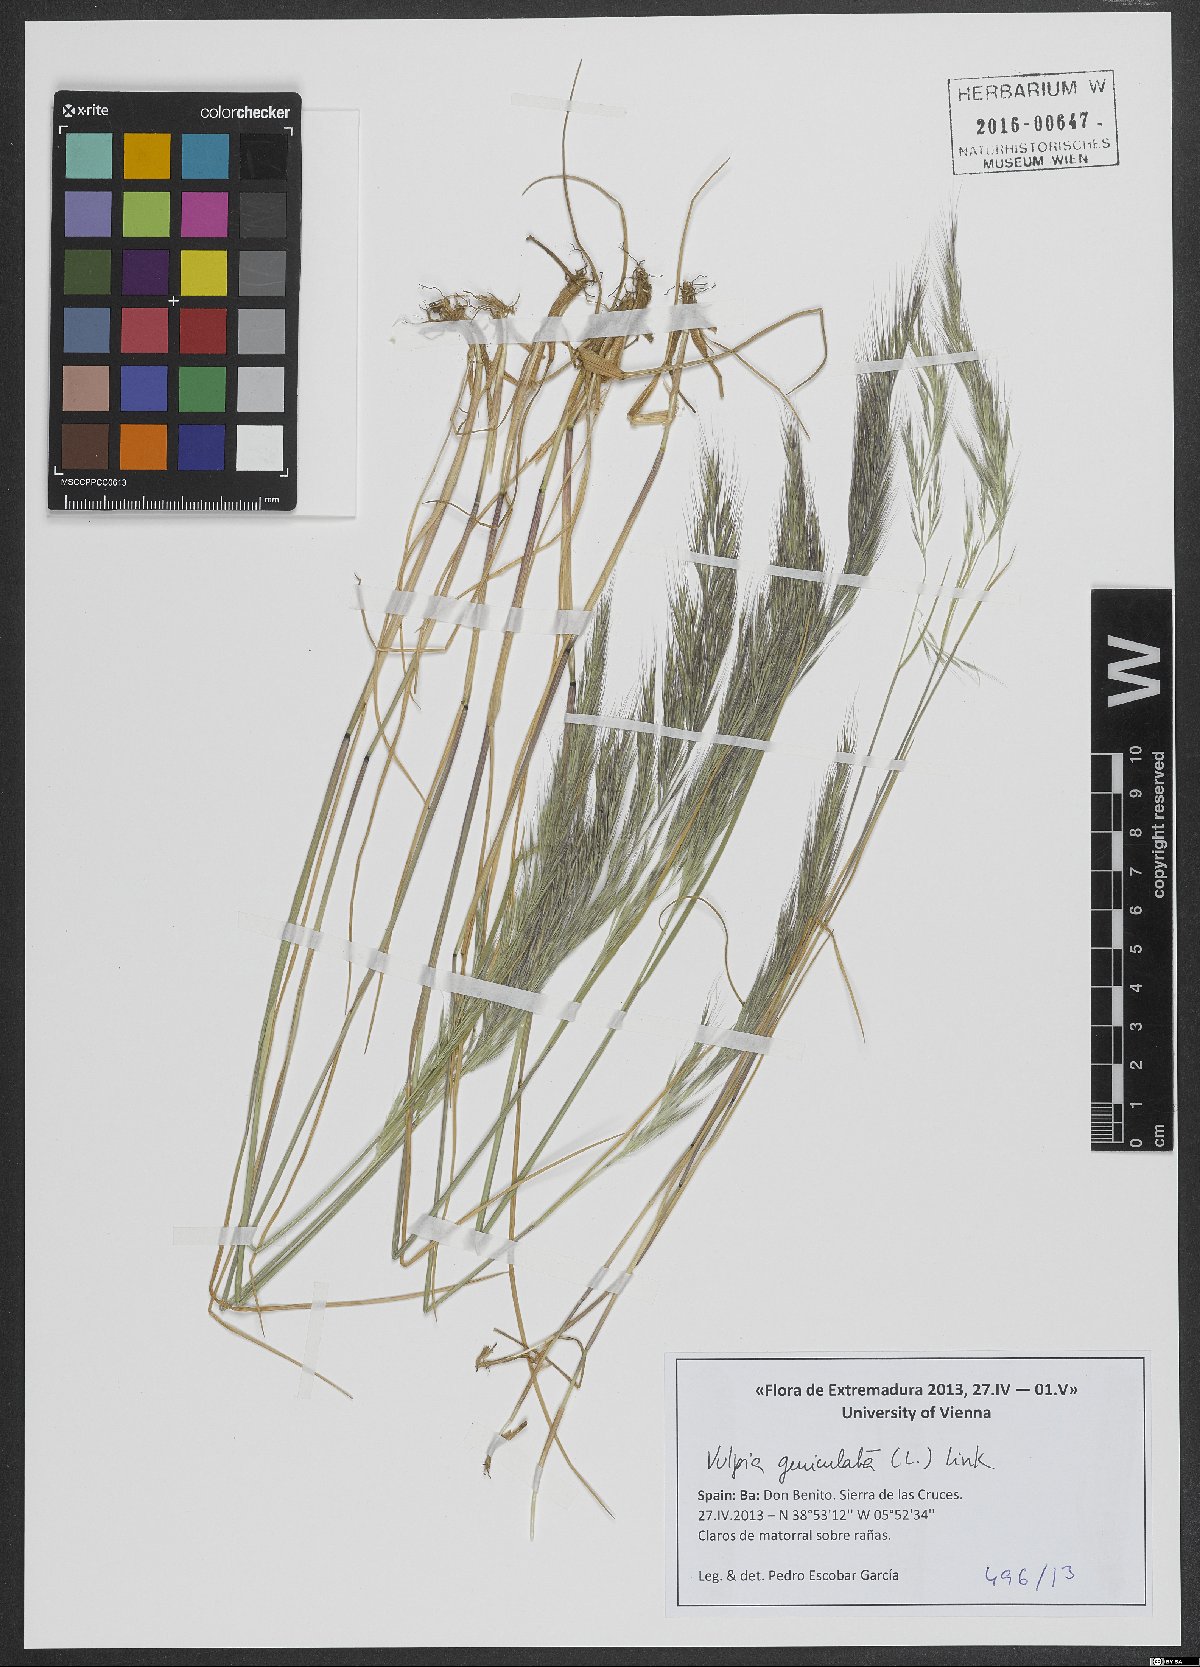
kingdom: Plantae
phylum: Tracheophyta
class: Liliopsida
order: Poales
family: Poaceae
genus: Festuca
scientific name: Festuca geniculata
